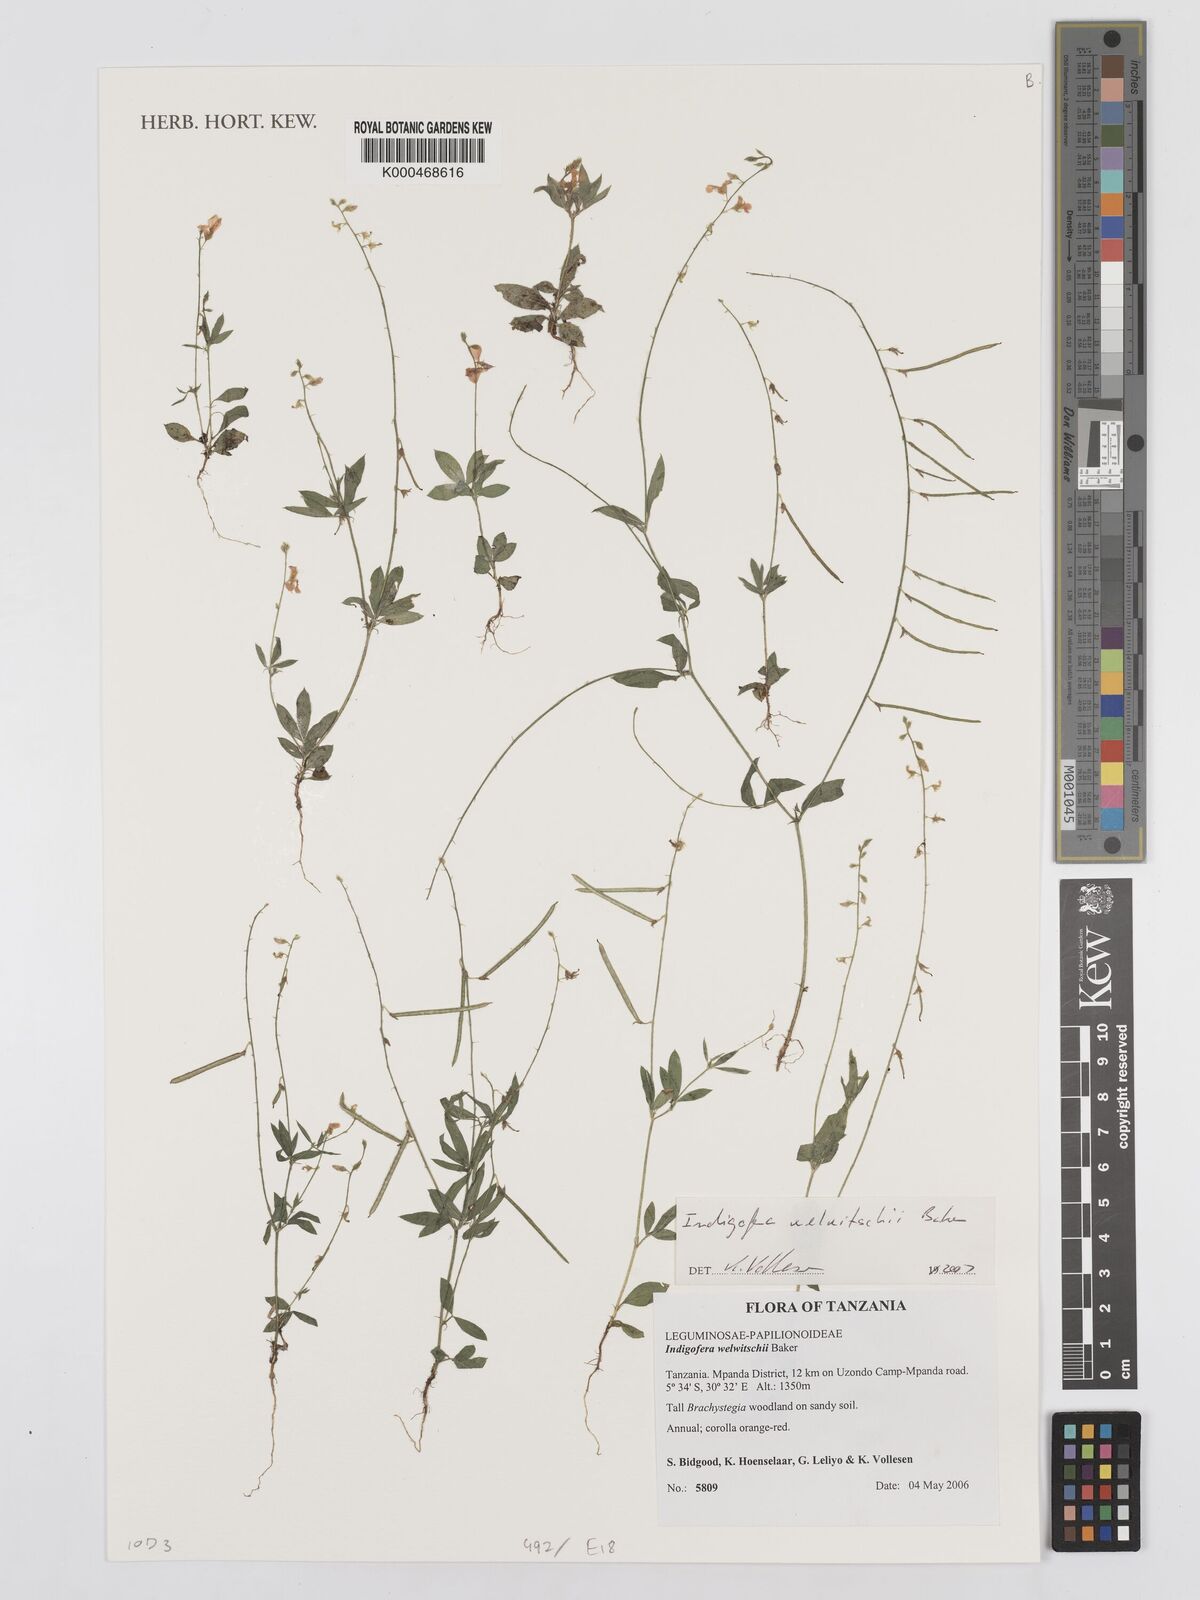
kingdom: Plantae
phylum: Tracheophyta
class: Magnoliopsida
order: Fabales
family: Fabaceae
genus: Microcharis
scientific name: Microcharis welwitschii
